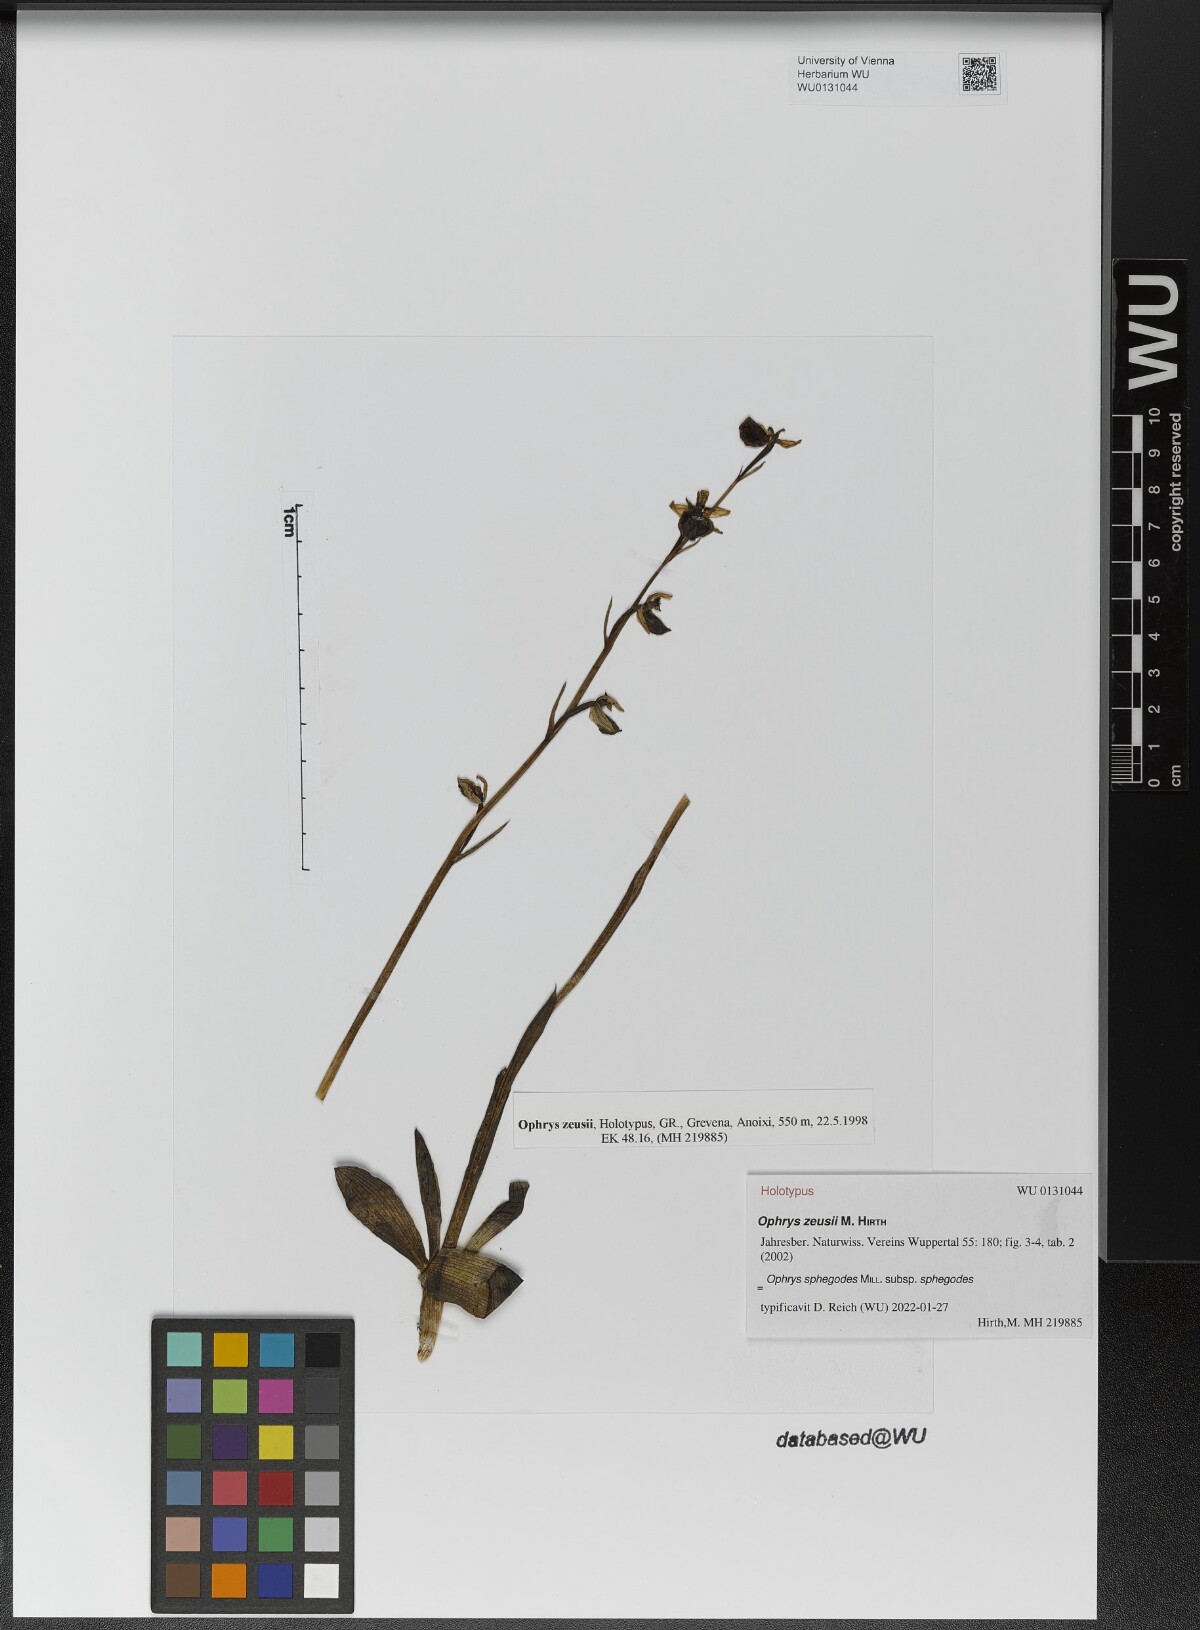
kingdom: Plantae
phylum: Tracheophyta
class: Liliopsida
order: Asparagales
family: Orchidaceae
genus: Ophrys
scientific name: Ophrys sphegodes
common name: Early spider-orchid
